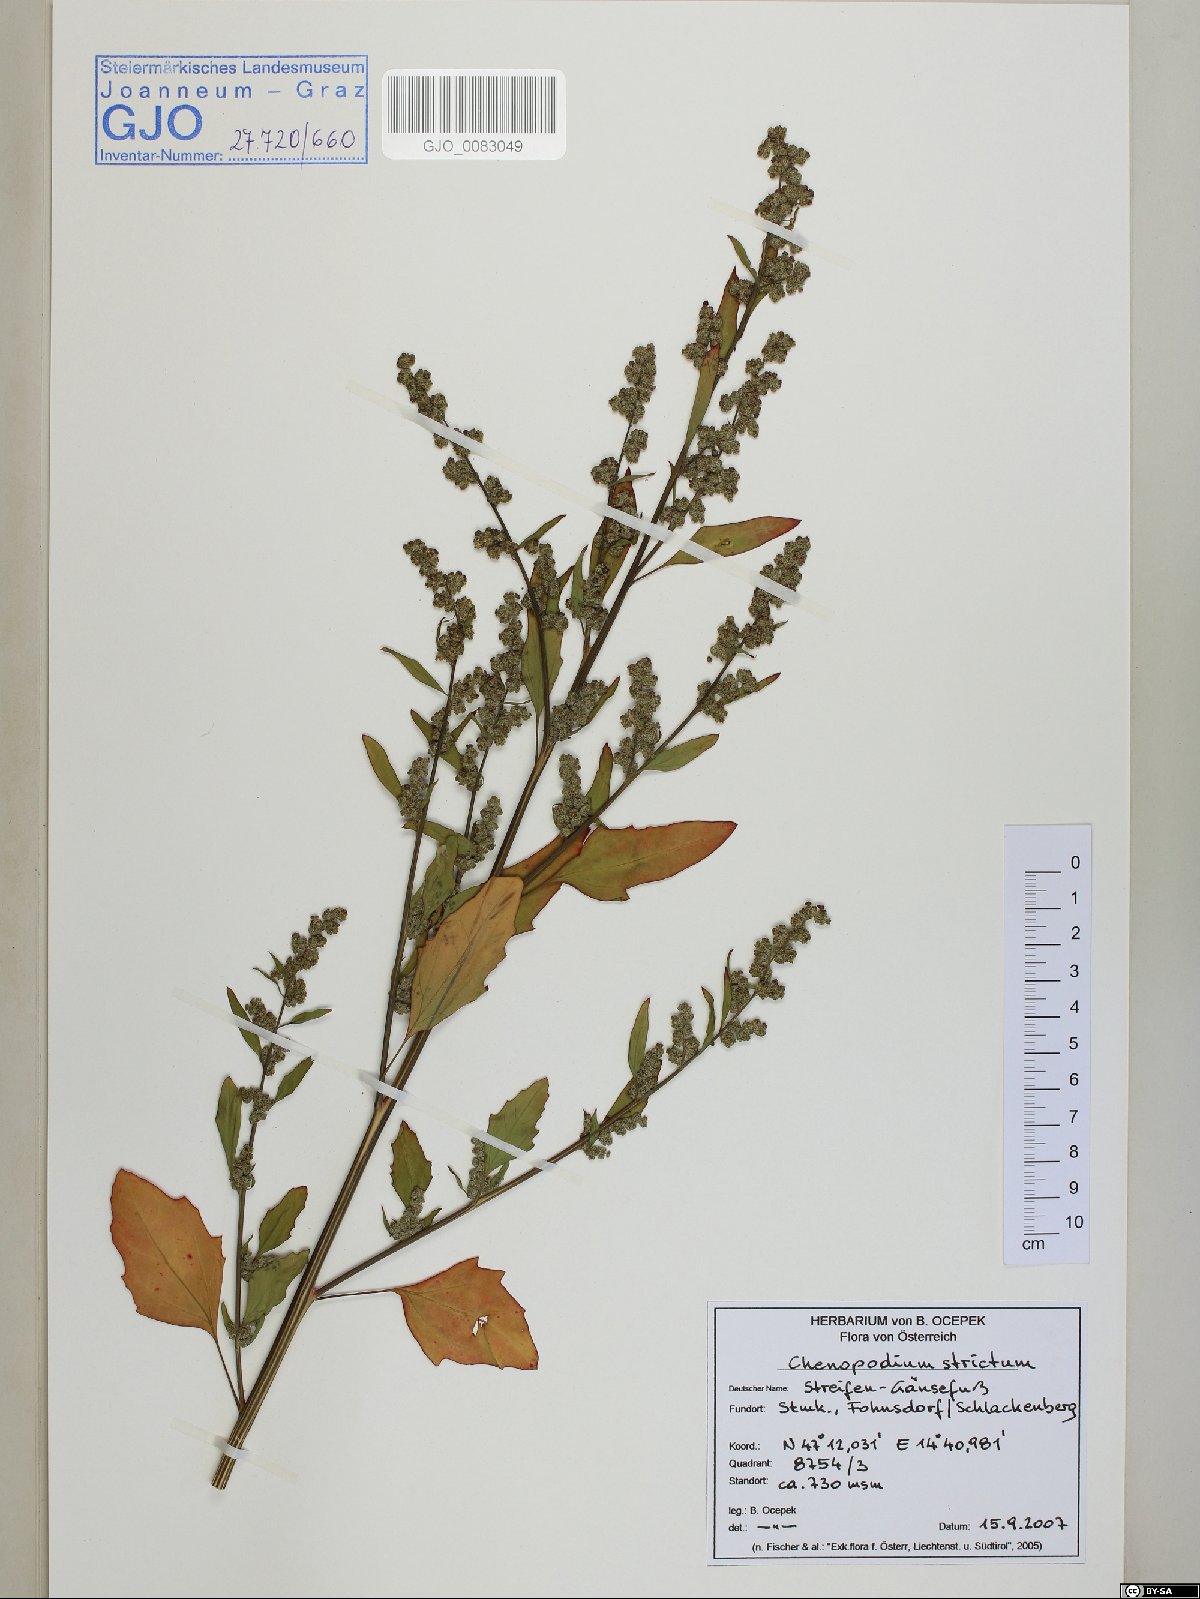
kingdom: Plantae
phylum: Tracheophyta
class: Magnoliopsida
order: Caryophyllales
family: Amaranthaceae
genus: Chenopodium
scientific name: Chenopodium album
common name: Fat-hen
